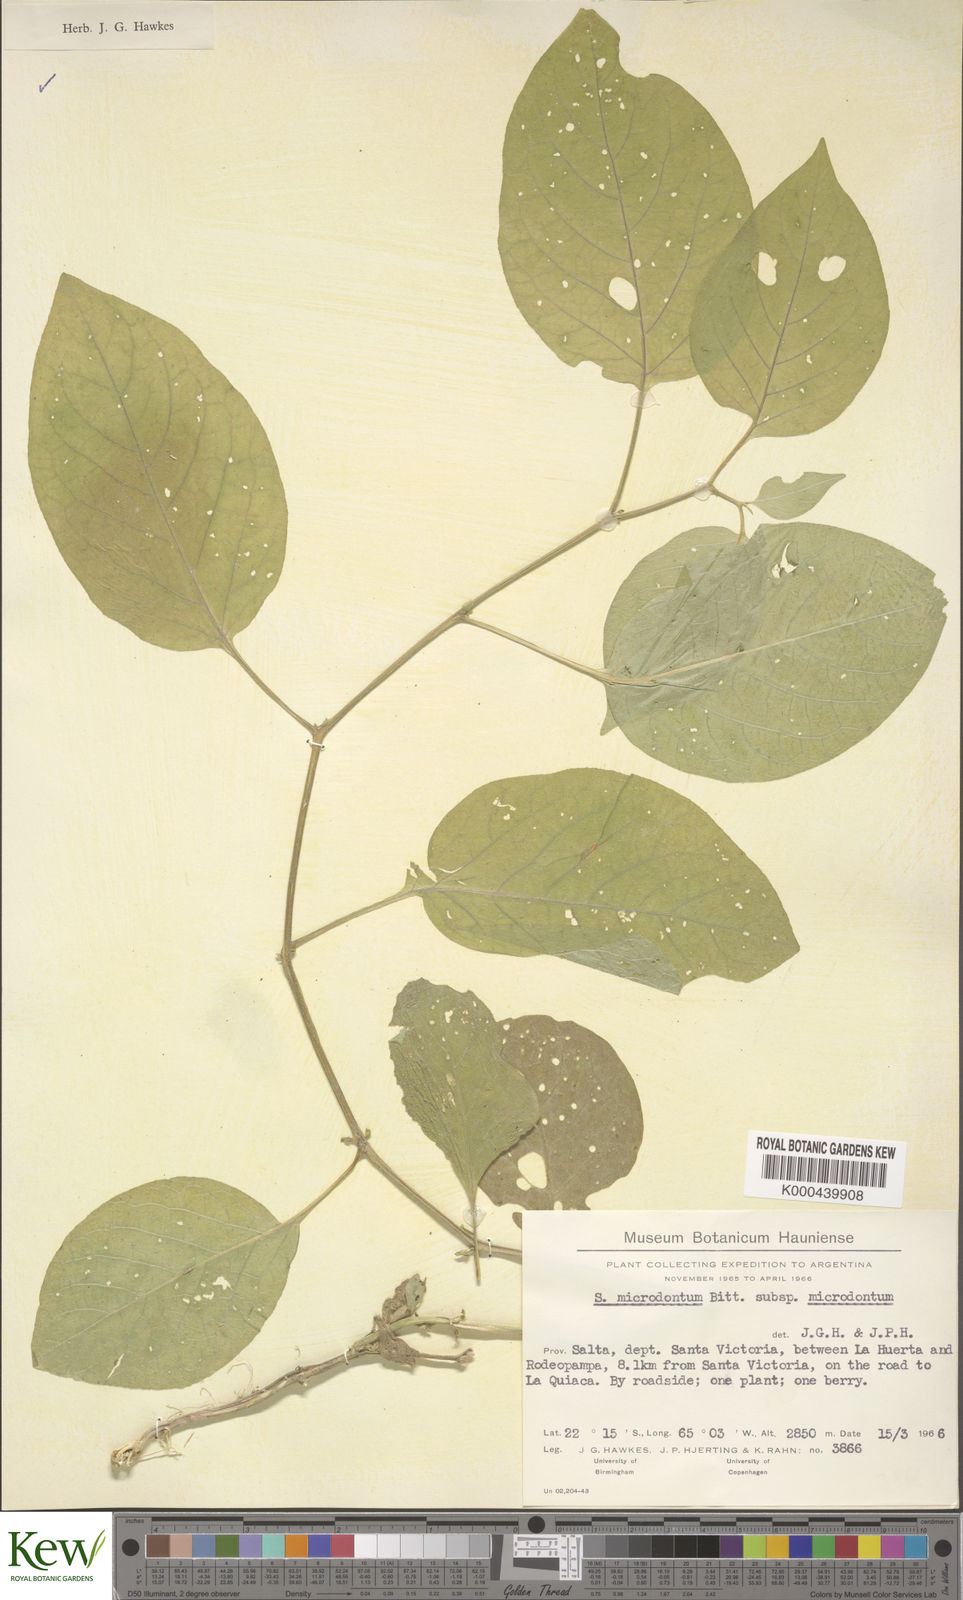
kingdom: Plantae
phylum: Tracheophyta
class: Magnoliopsida
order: Solanales
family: Solanaceae
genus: Solanum
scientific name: Solanum microdontum
